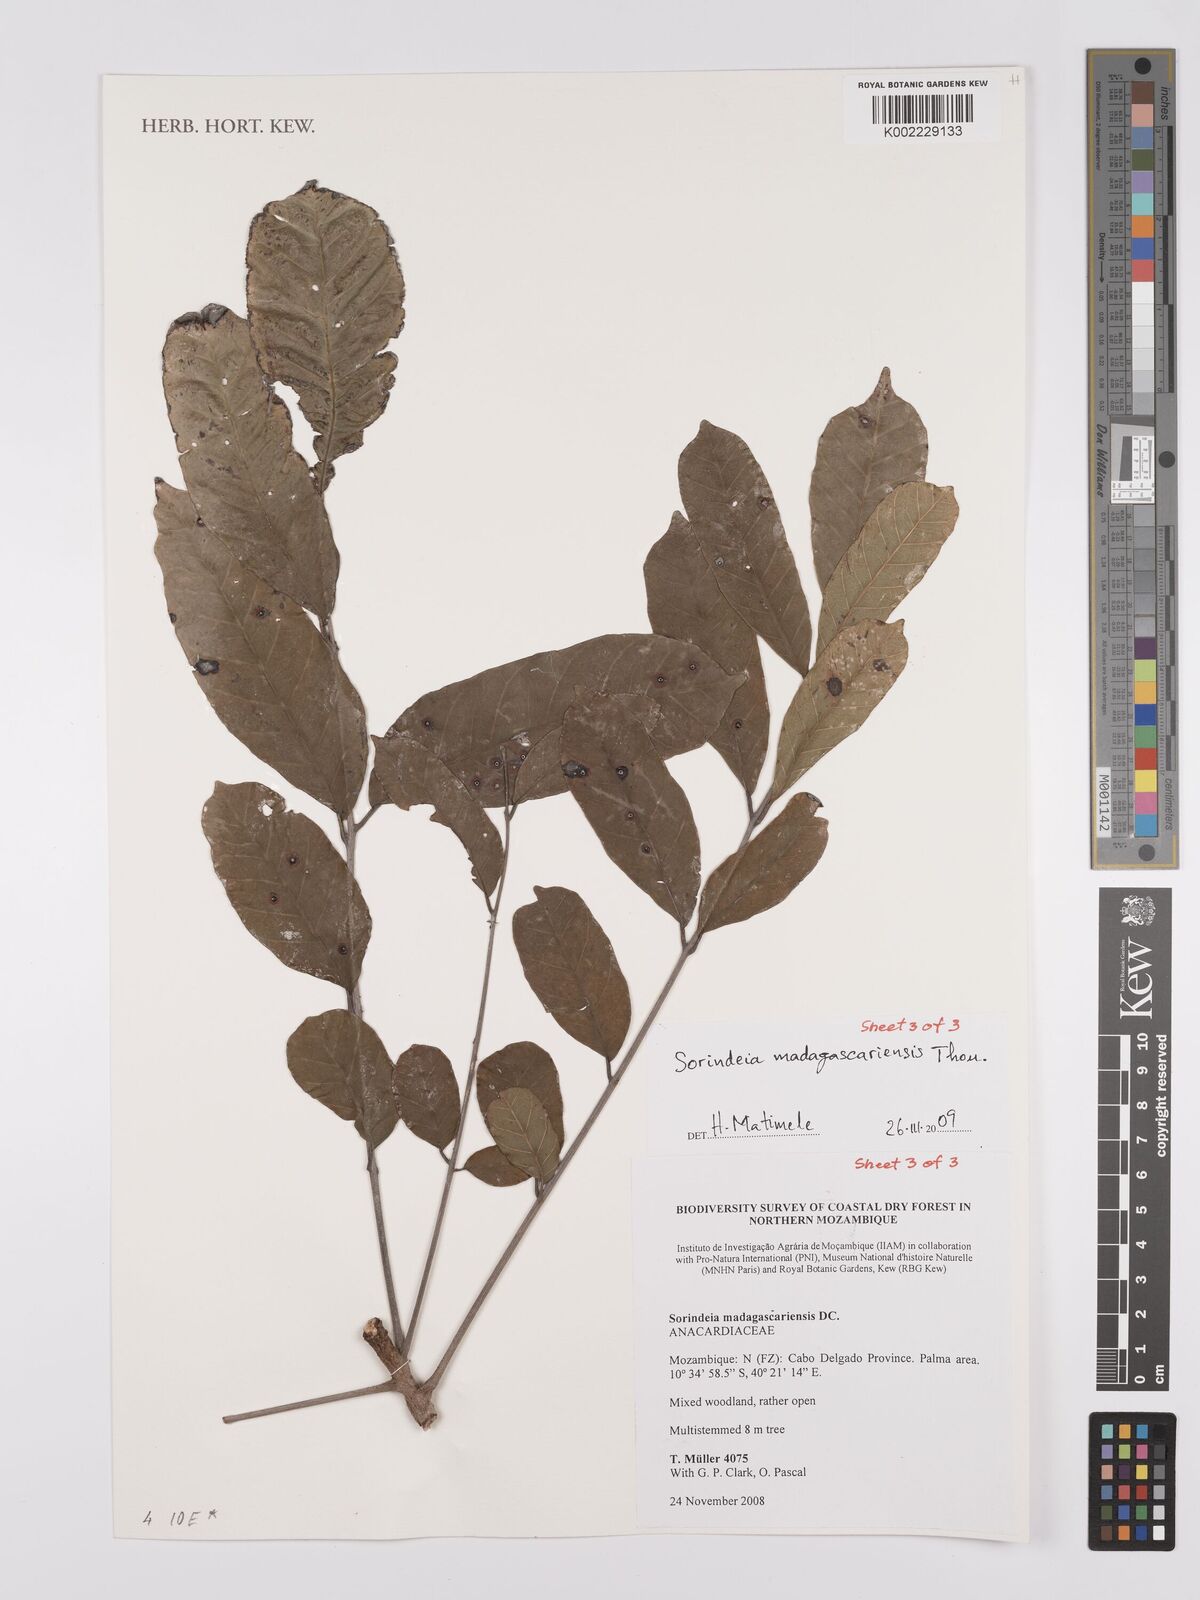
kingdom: Plantae
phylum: Tracheophyta
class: Magnoliopsida
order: Sapindales
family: Anacardiaceae
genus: Sorindeia
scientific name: Sorindeia madagascariensis
